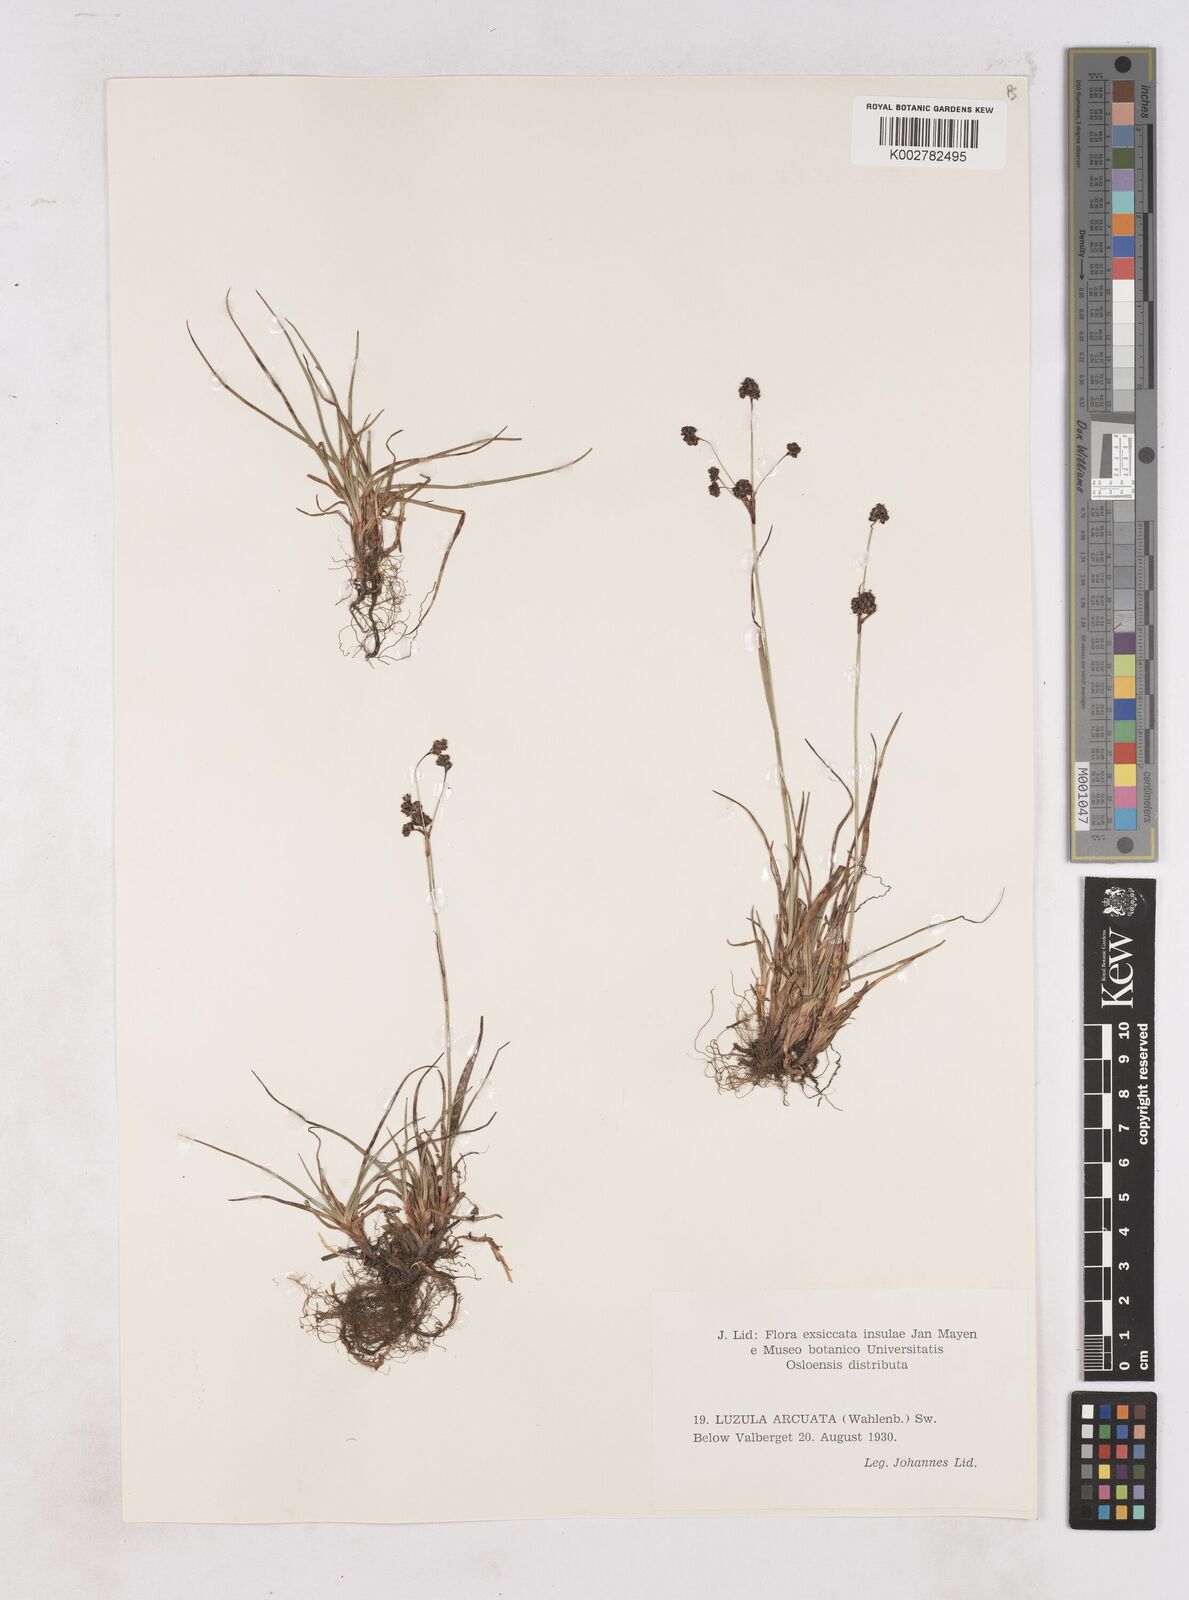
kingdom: Plantae
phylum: Tracheophyta
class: Liliopsida
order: Poales
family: Juncaceae
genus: Luzula
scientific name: Luzula arcuata
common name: Curved wood-rush
